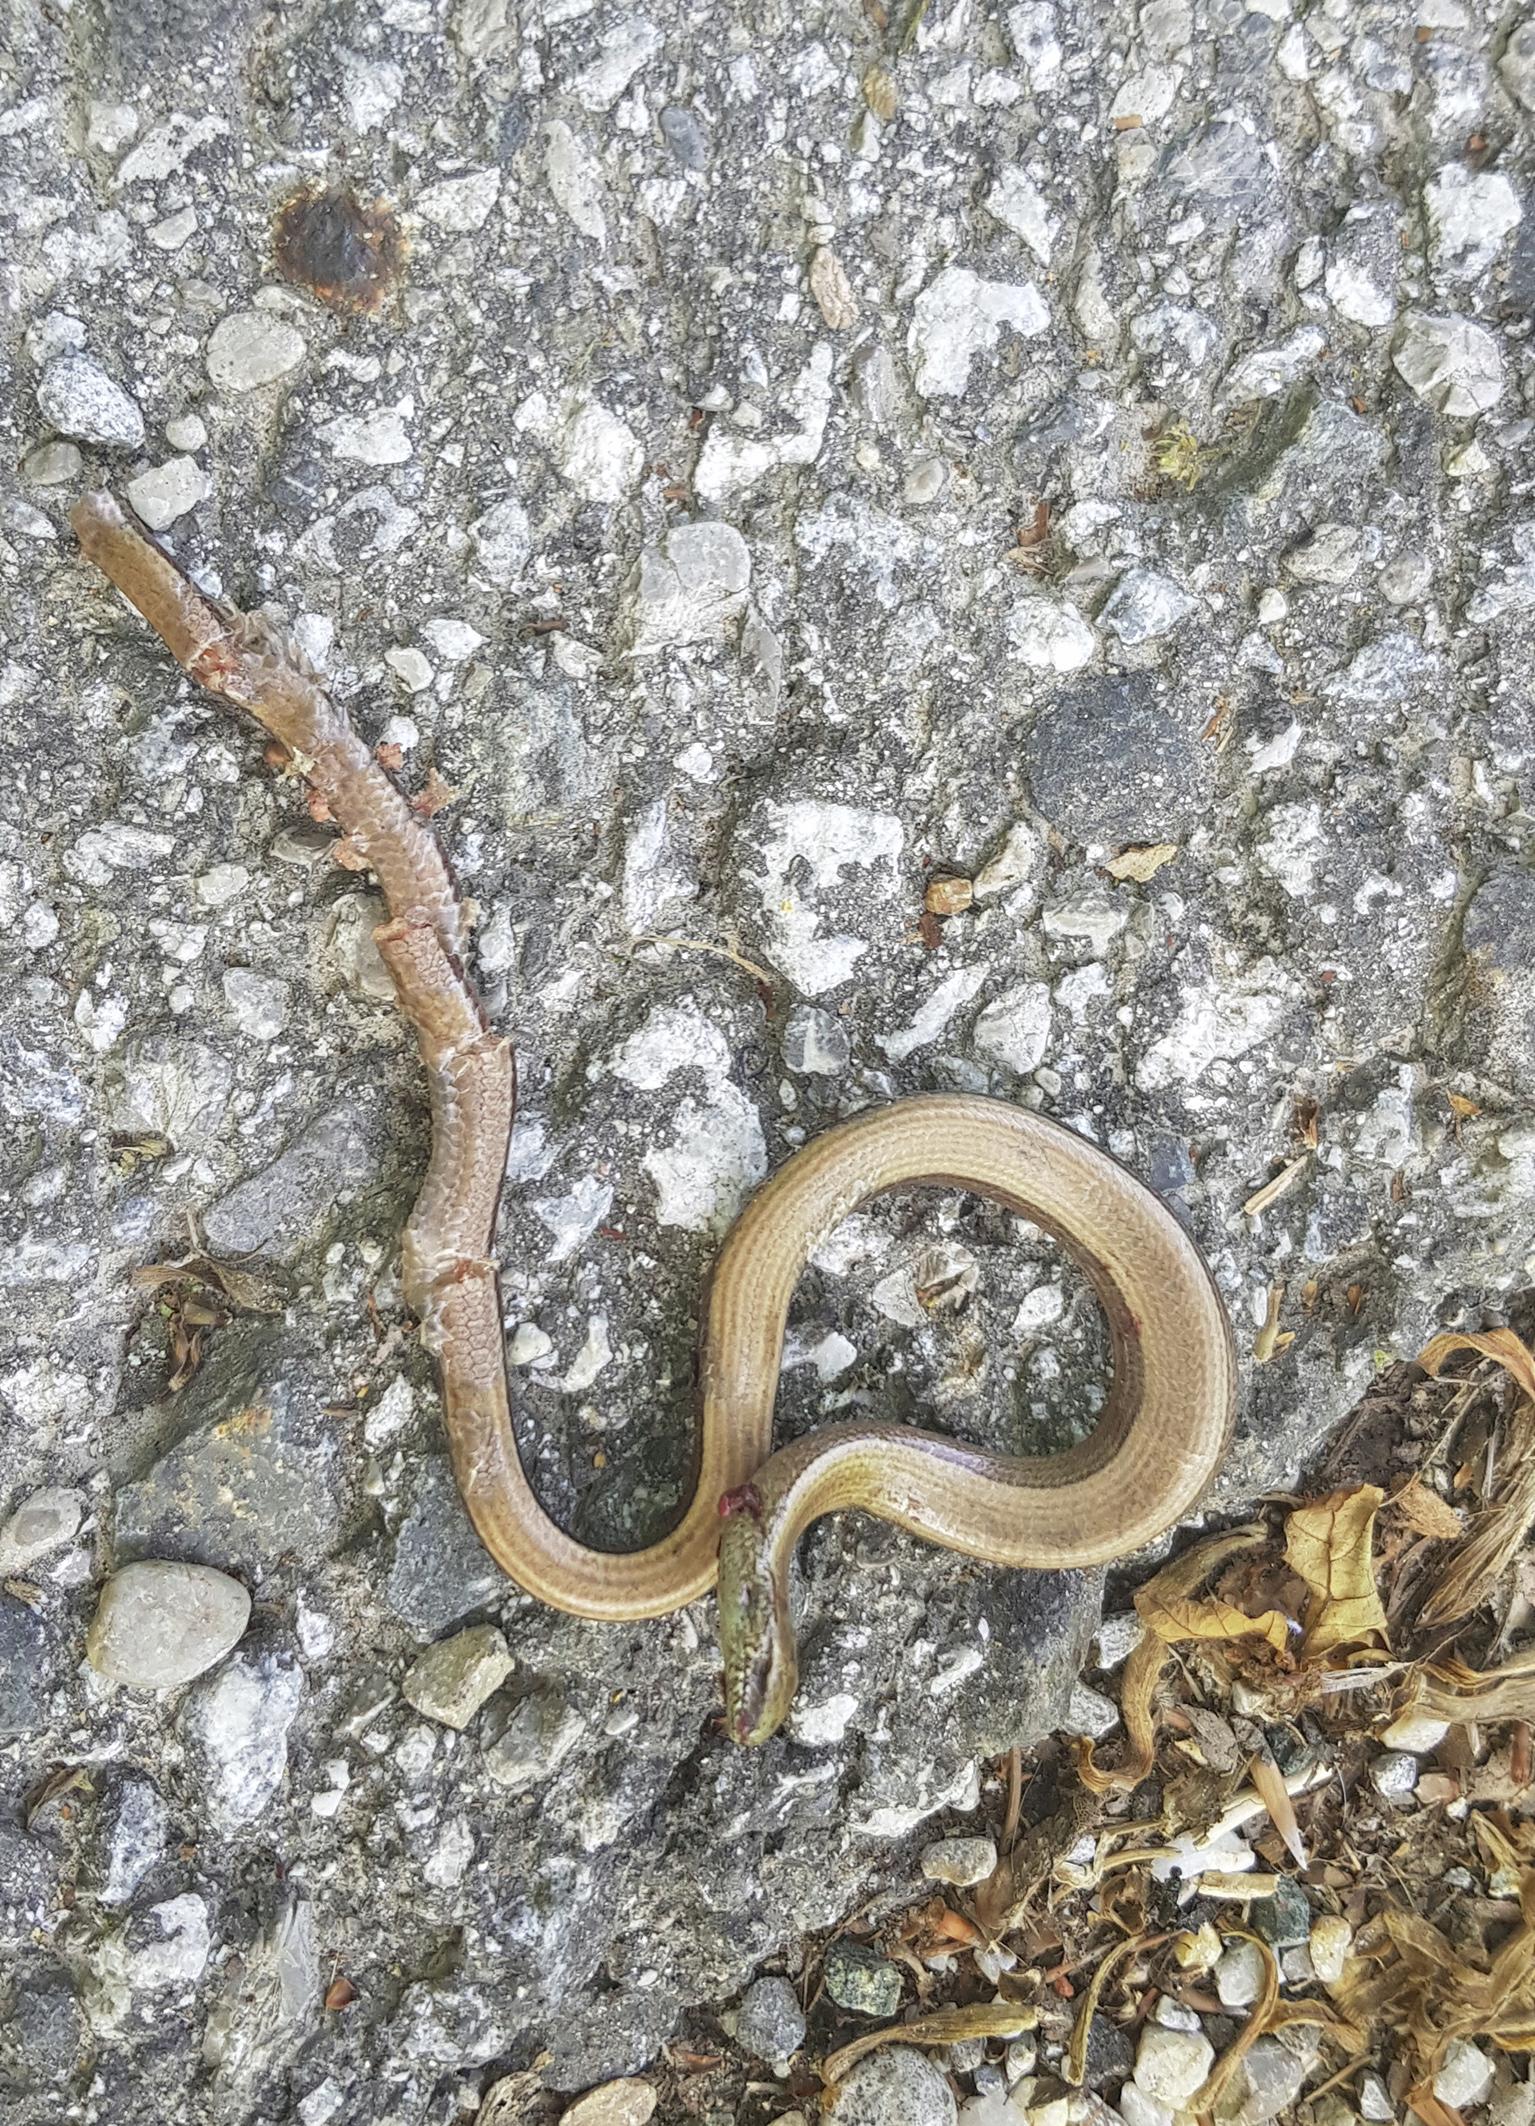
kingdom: Animalia
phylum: Chordata
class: Squamata
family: Anguidae
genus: Anguis
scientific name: Anguis fragilis
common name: Slow worm
